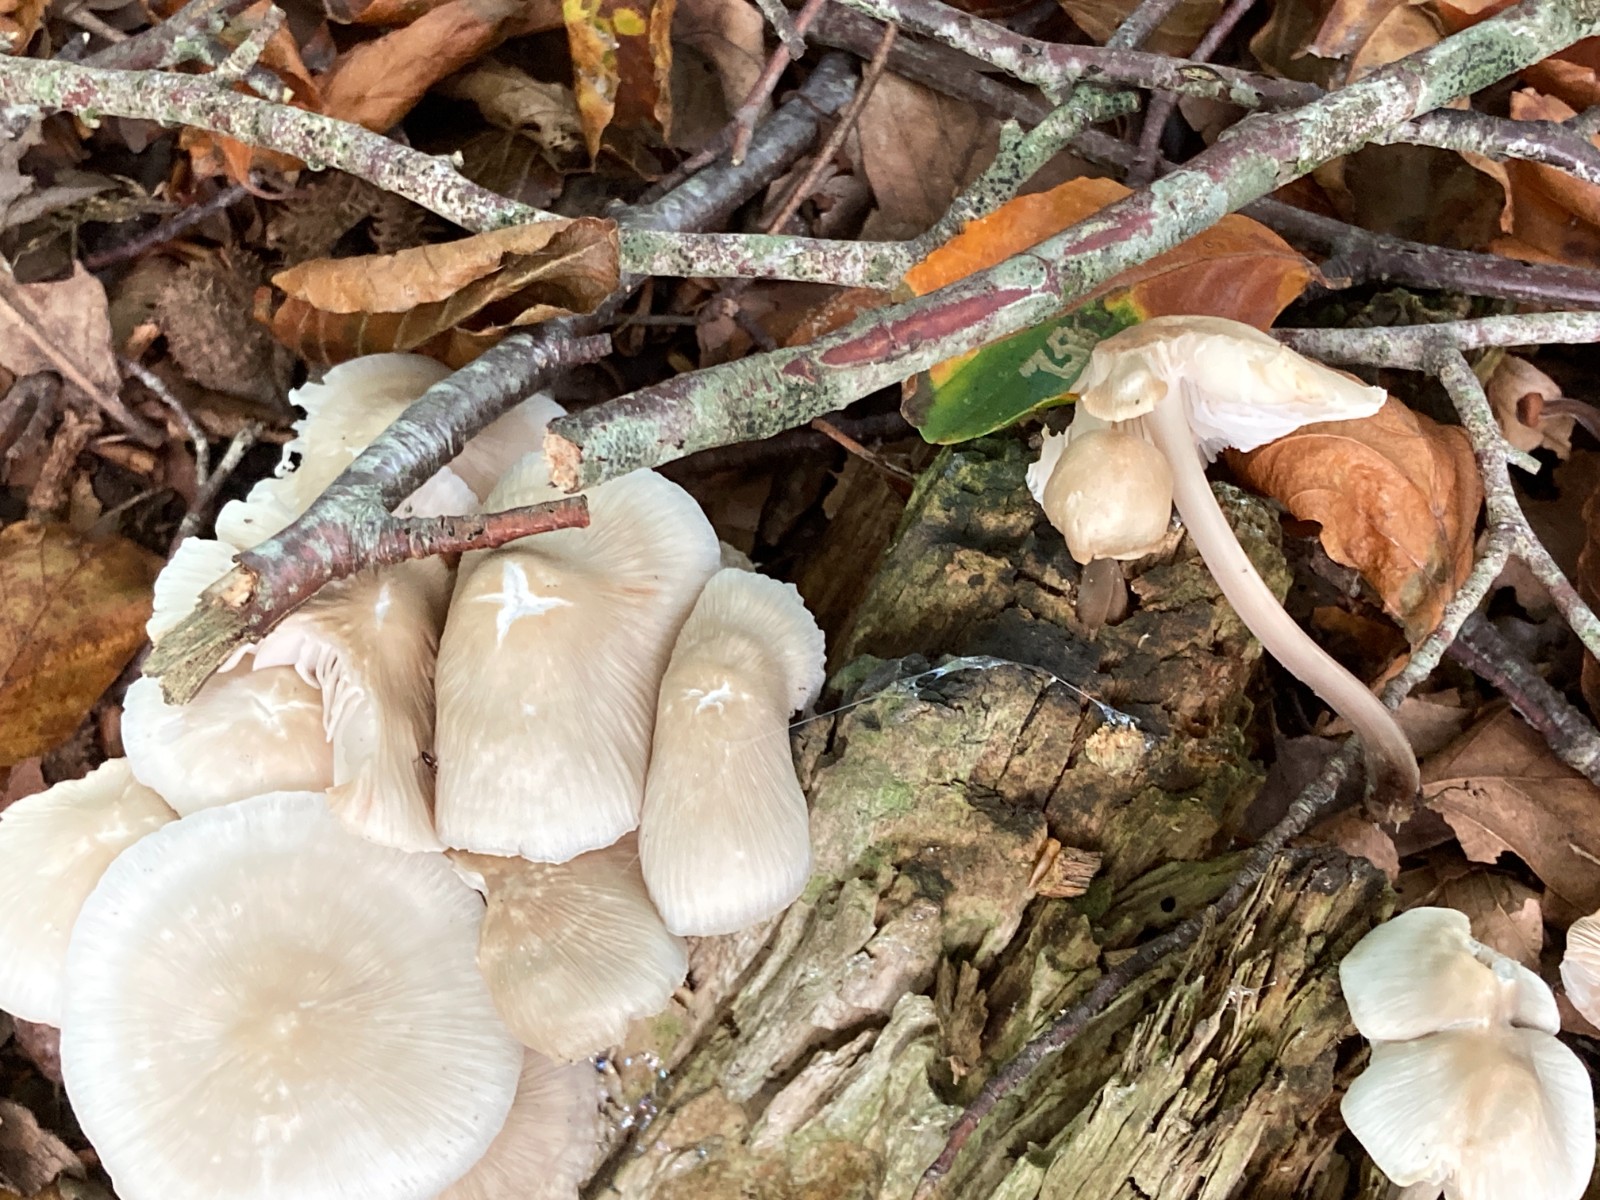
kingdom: Fungi
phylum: Basidiomycota
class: Agaricomycetes
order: Agaricales
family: Mycenaceae
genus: Mycena
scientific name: Mycena galericulata
